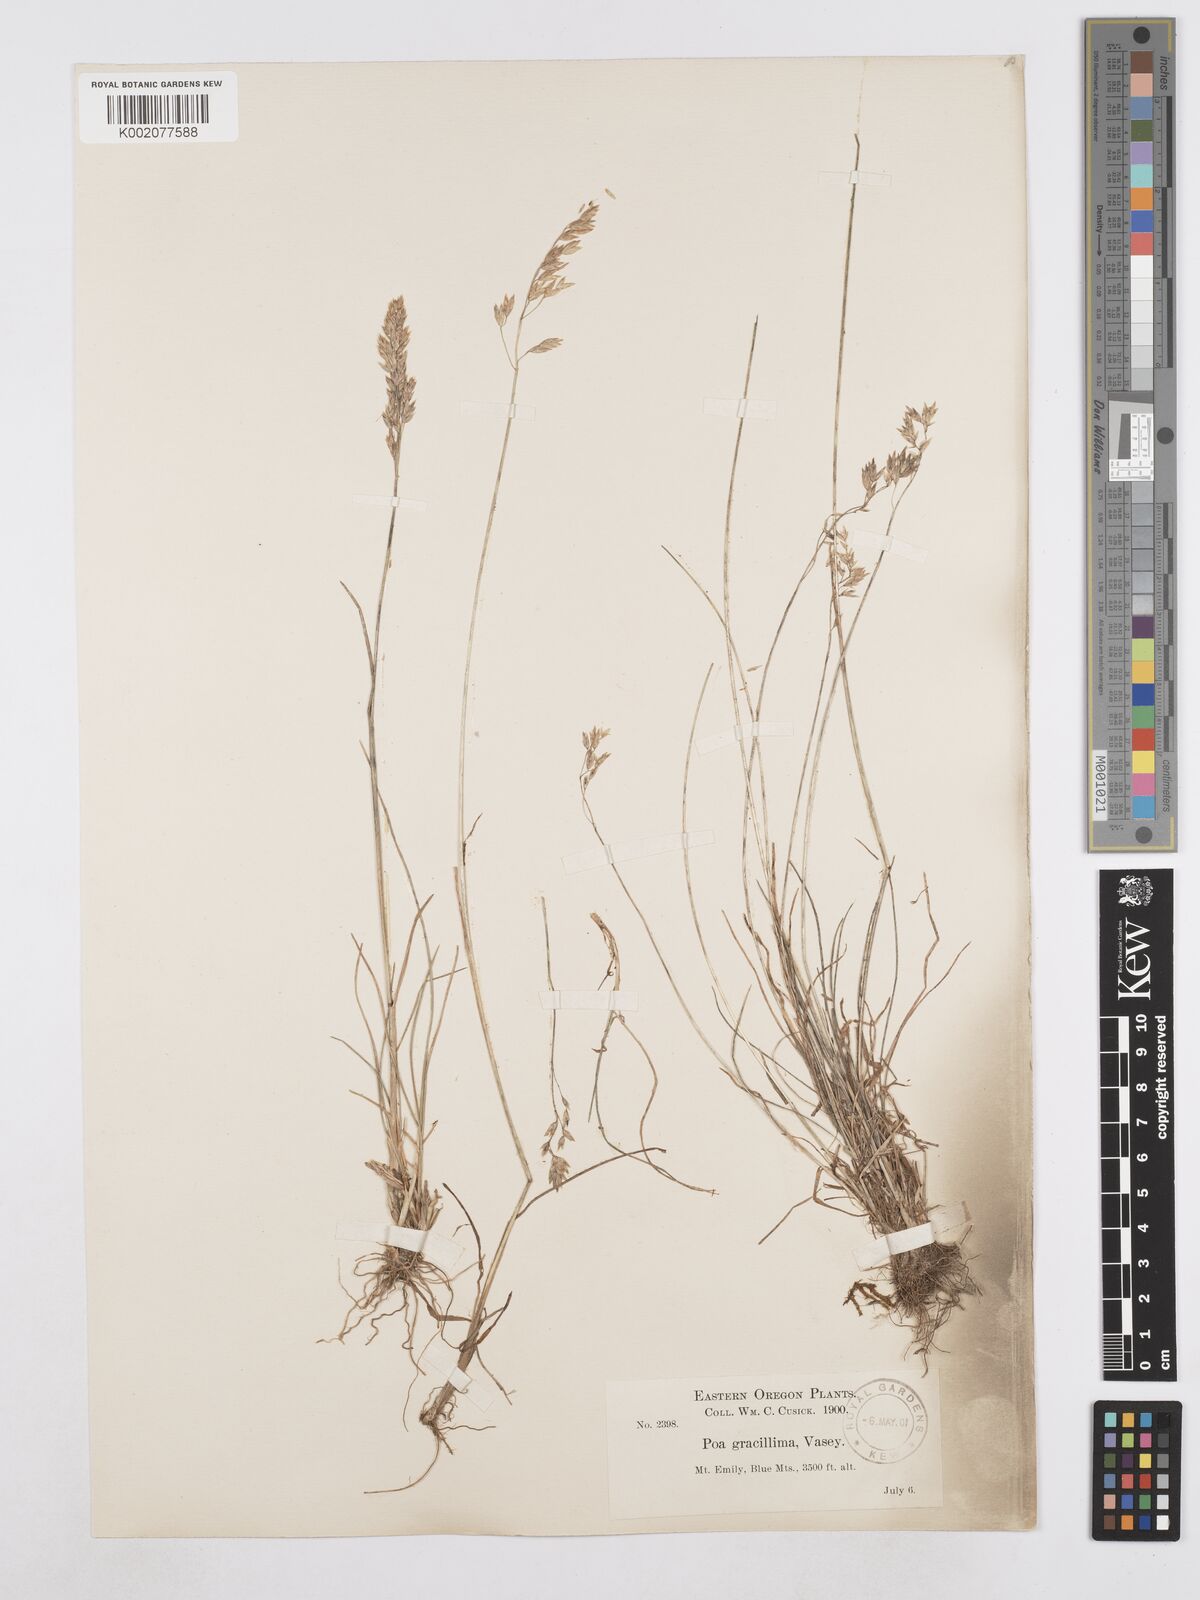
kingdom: Plantae
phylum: Tracheophyta
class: Liliopsida
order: Poales
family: Poaceae
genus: Poa
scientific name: Poa secunda
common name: Sandberg bluegrass
